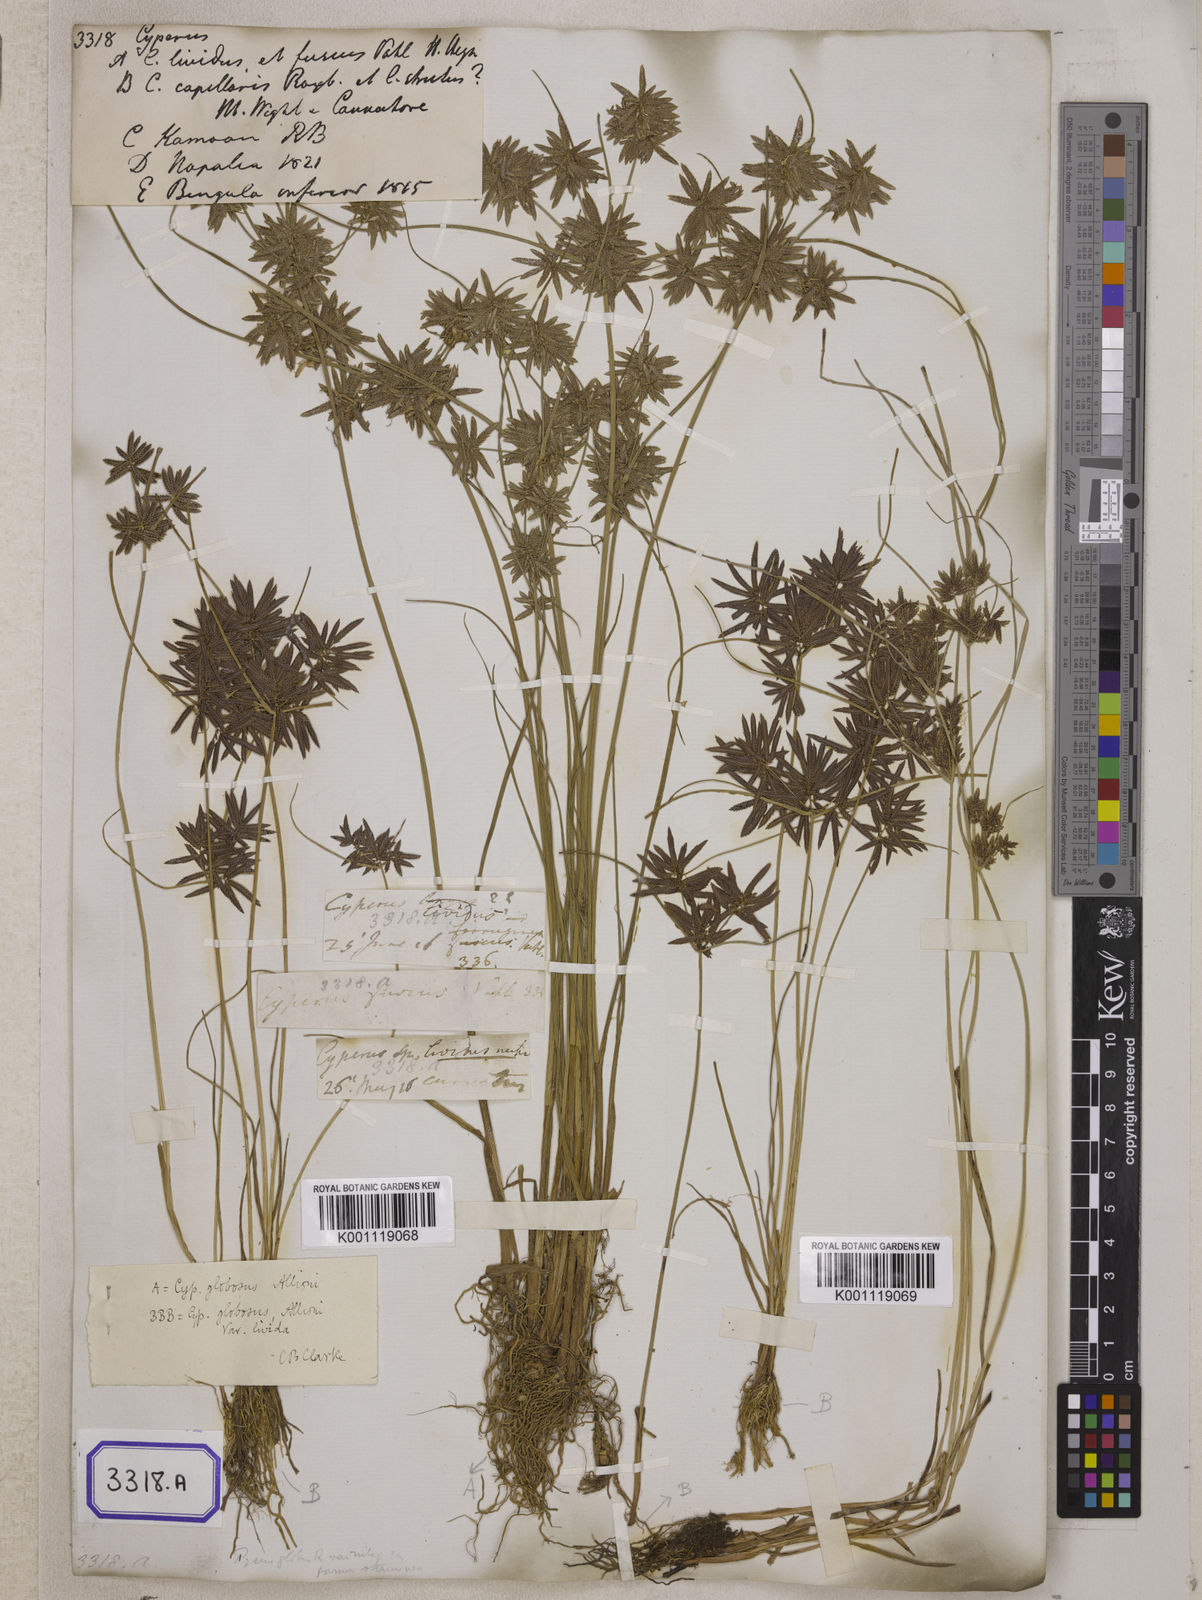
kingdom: Plantae
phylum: Tracheophyta
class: Liliopsida
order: Poales
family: Cyperaceae
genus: Cyperus
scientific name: Cyperus
